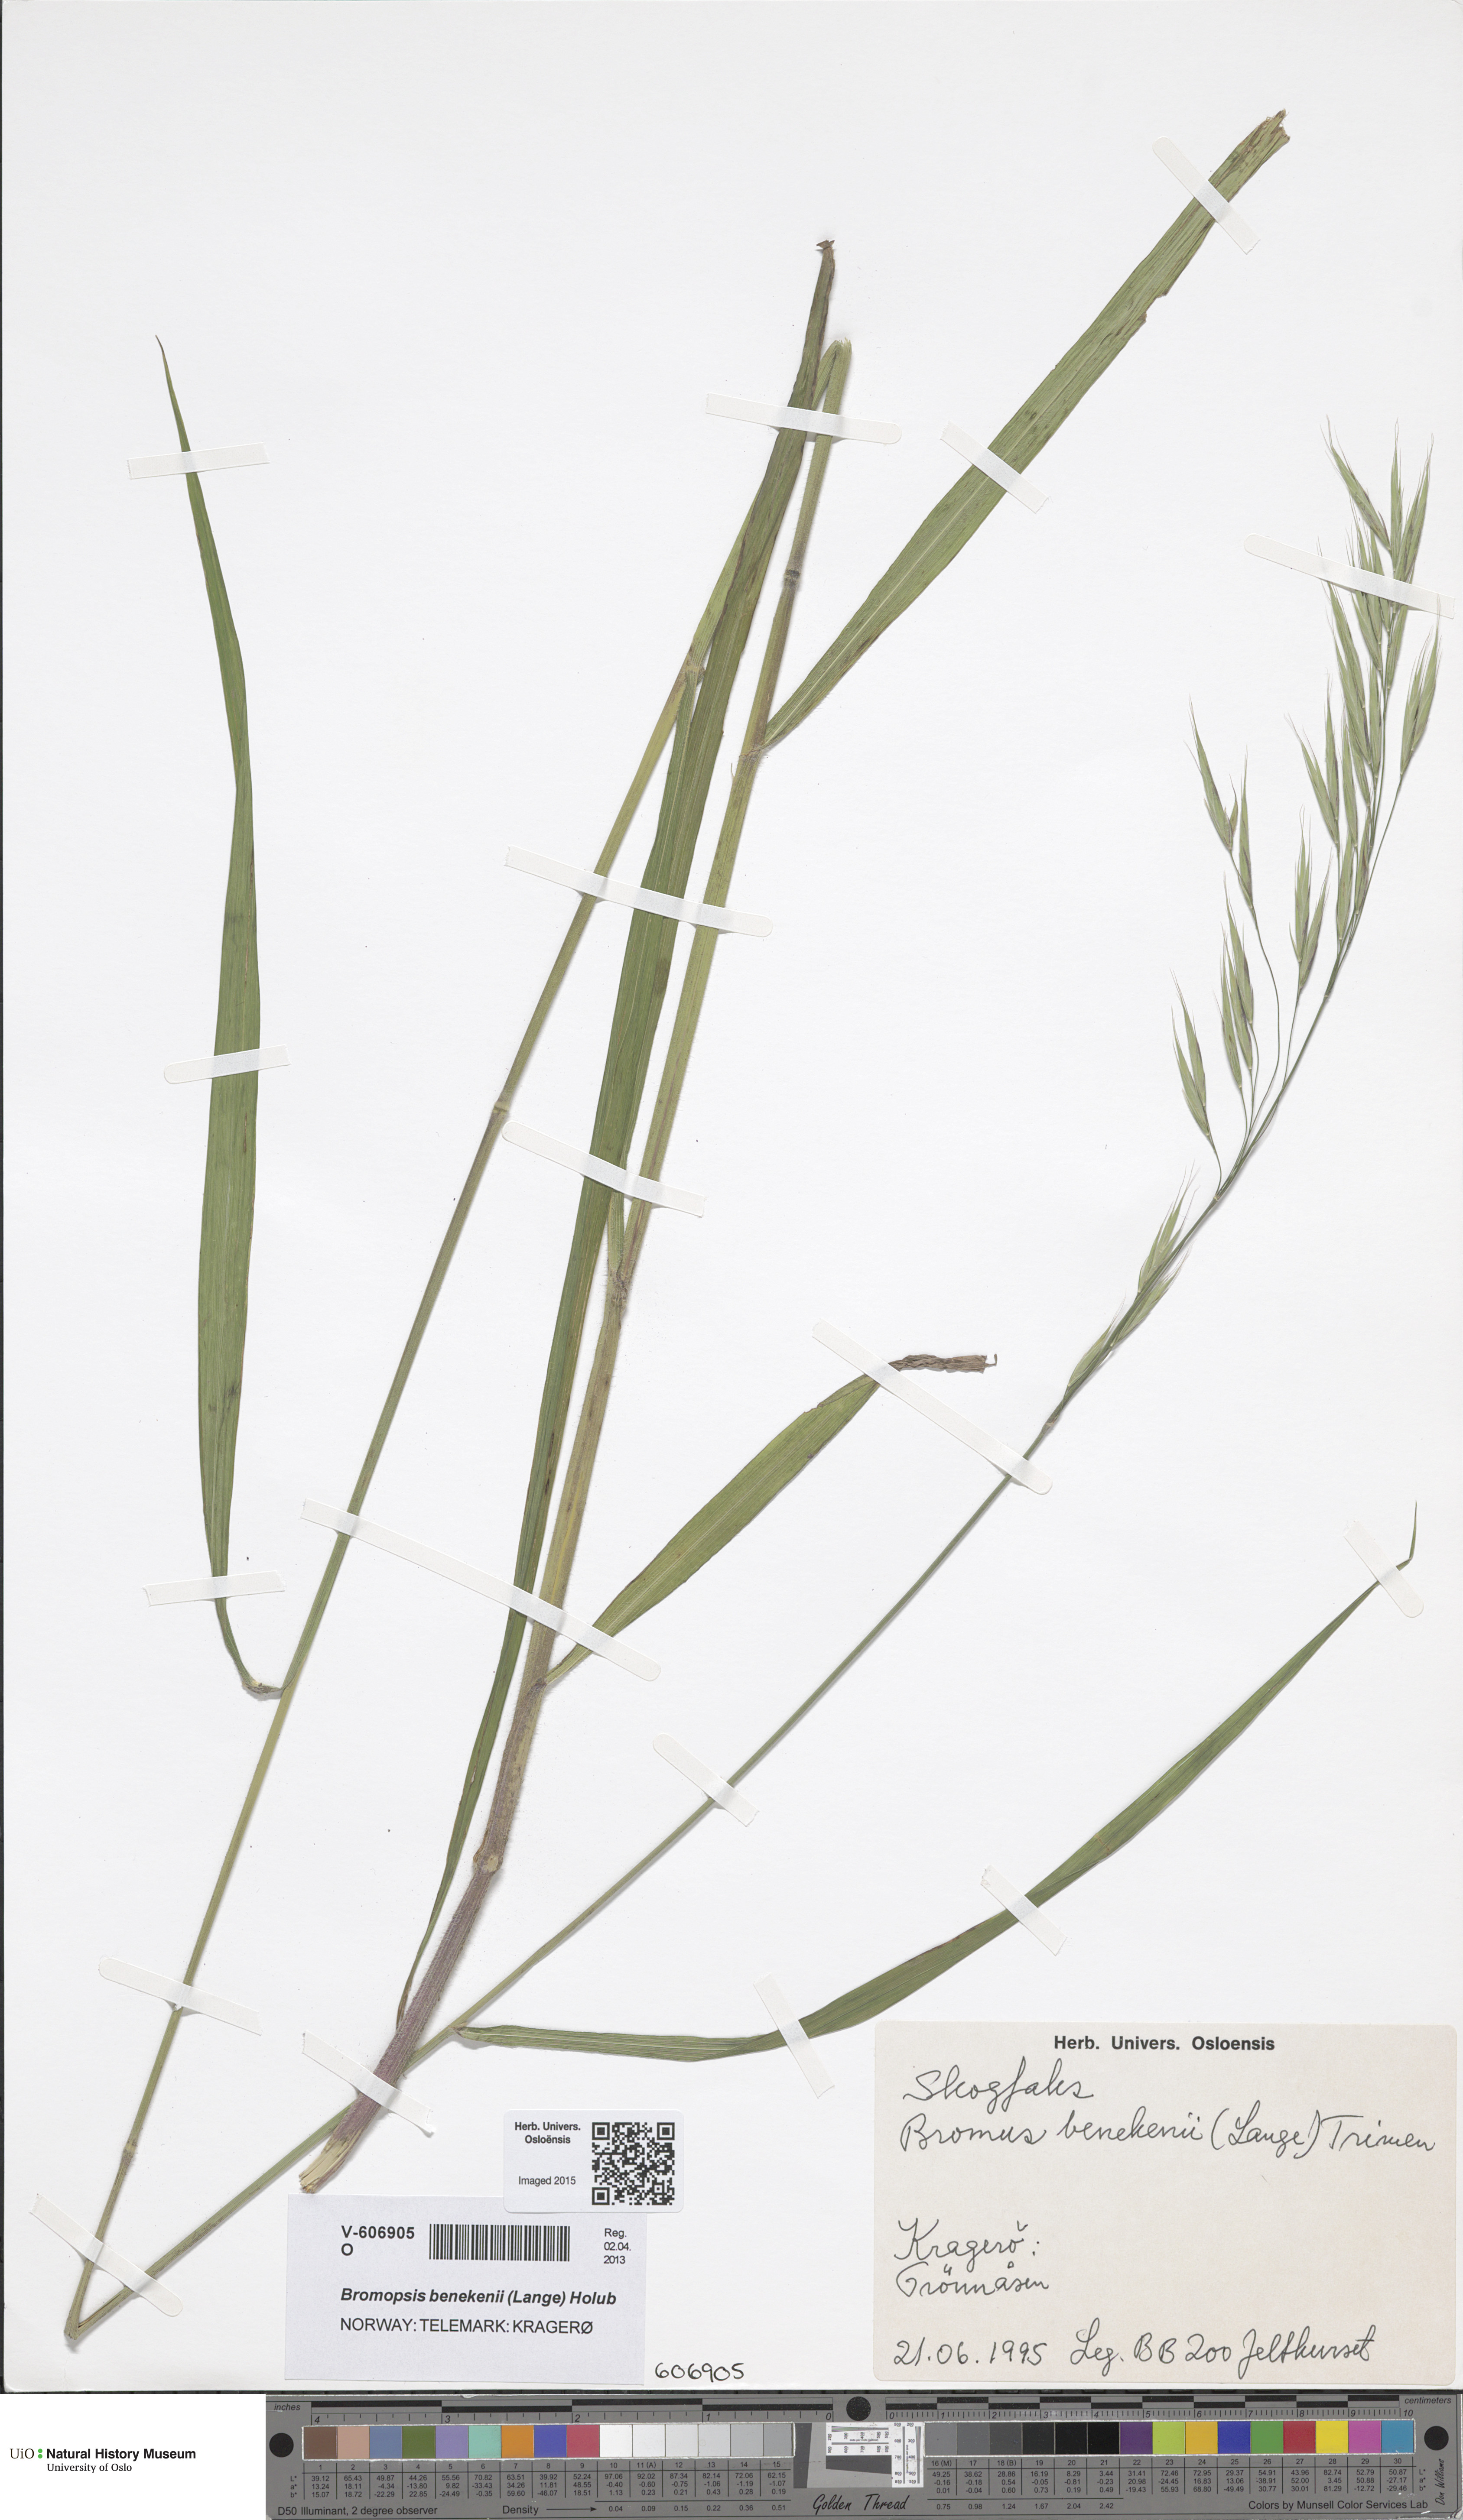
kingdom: Plantae
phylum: Tracheophyta
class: Liliopsida
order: Poales
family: Poaceae
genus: Bromus
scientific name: Bromus benekenii
